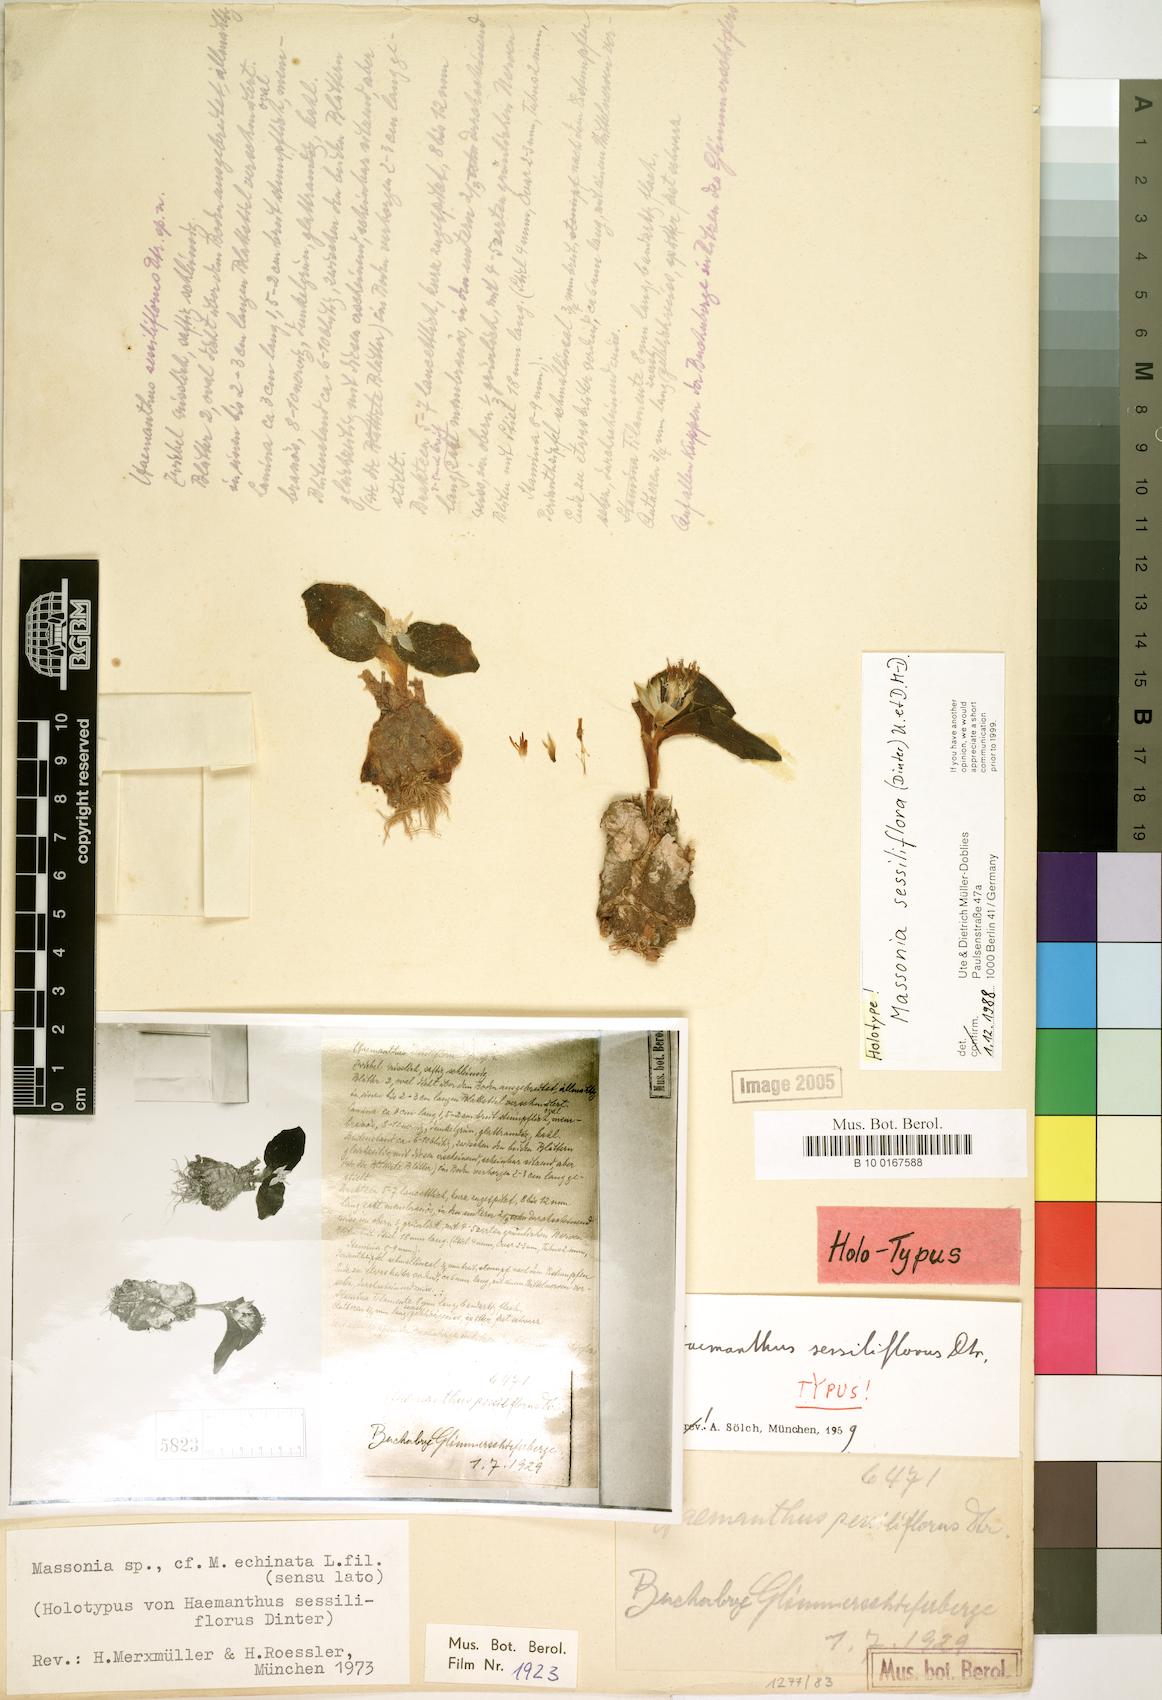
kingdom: Plantae
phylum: Tracheophyta
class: Liliopsida
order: Asparagales
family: Asparagaceae
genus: Massonia
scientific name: Massonia sessiliflora
